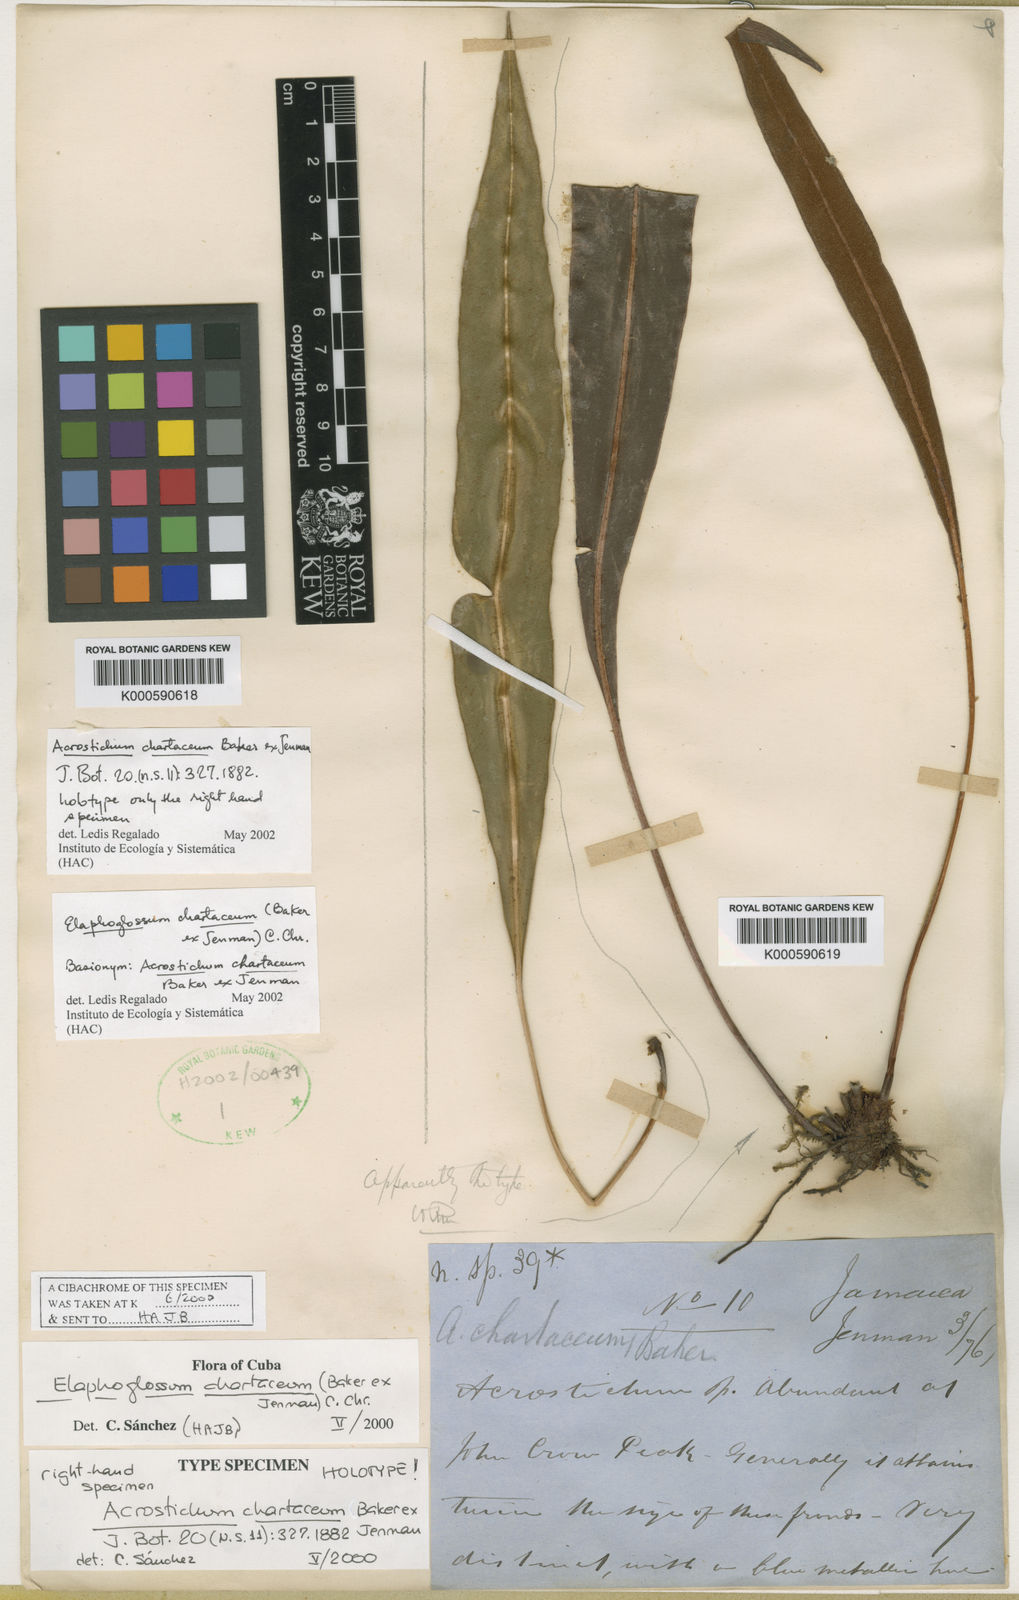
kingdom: Plantae
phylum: Tracheophyta
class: Polypodiopsida
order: Polypodiales
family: Dryopteridaceae
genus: Elaphoglossum
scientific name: Elaphoglossum chartaceum
